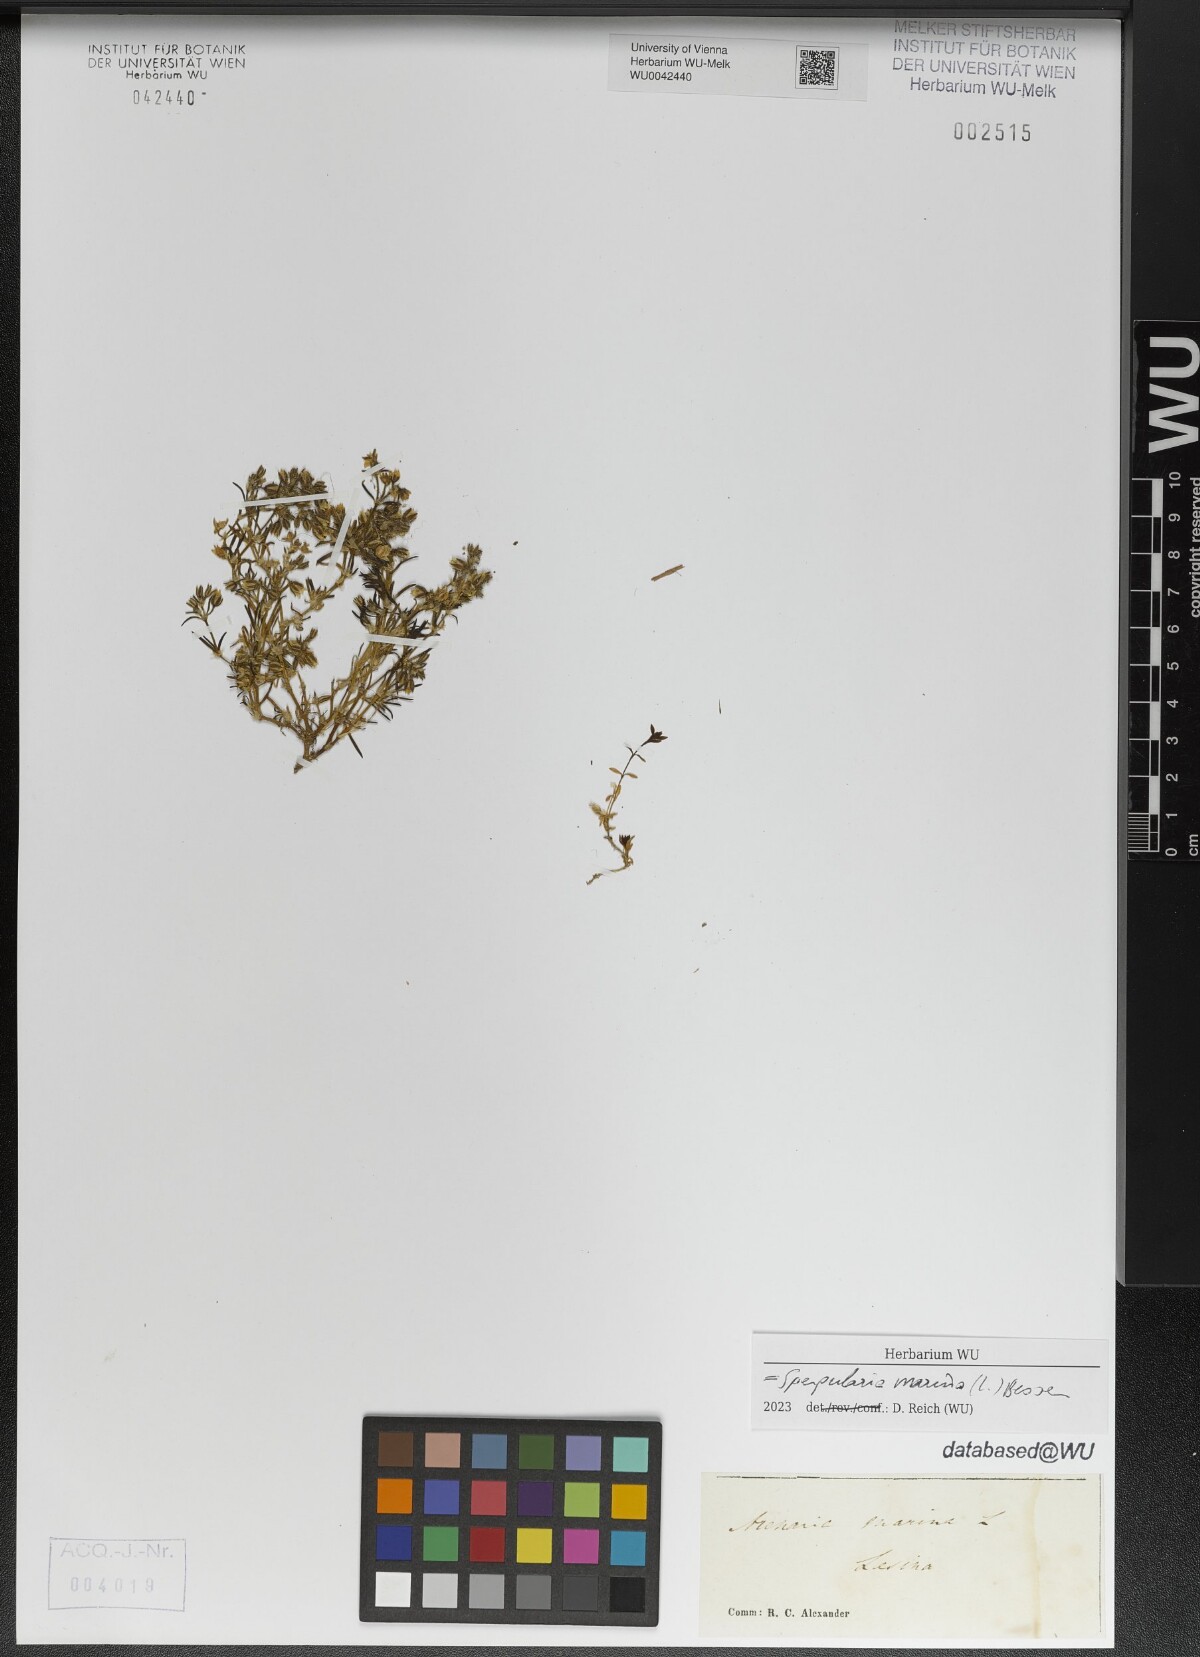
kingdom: Plantae
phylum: Tracheophyta
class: Magnoliopsida
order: Caryophyllales
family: Caryophyllaceae
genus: Spergularia
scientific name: Spergularia marina
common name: Lesser sea-spurrey
